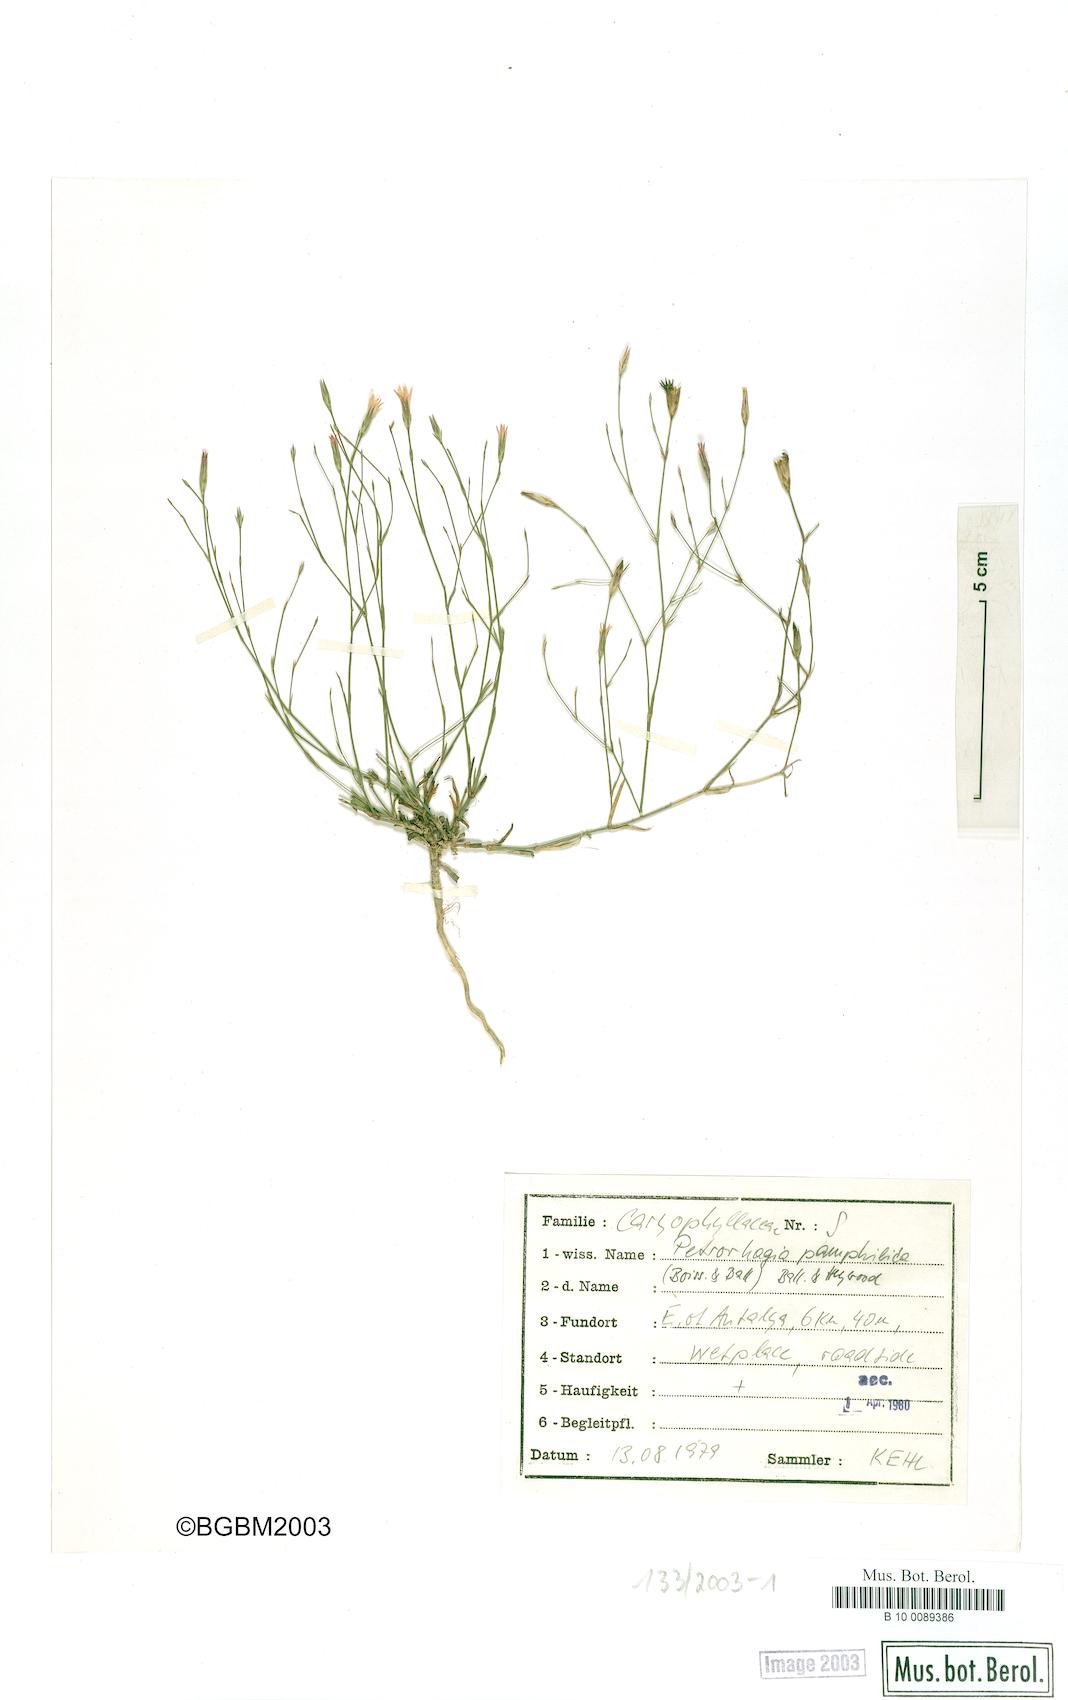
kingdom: Plantae
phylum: Tracheophyta
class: Magnoliopsida
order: Caryophyllales
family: Caryophyllaceae
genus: Petrorhagia
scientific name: Petrorhagia pamphylica
